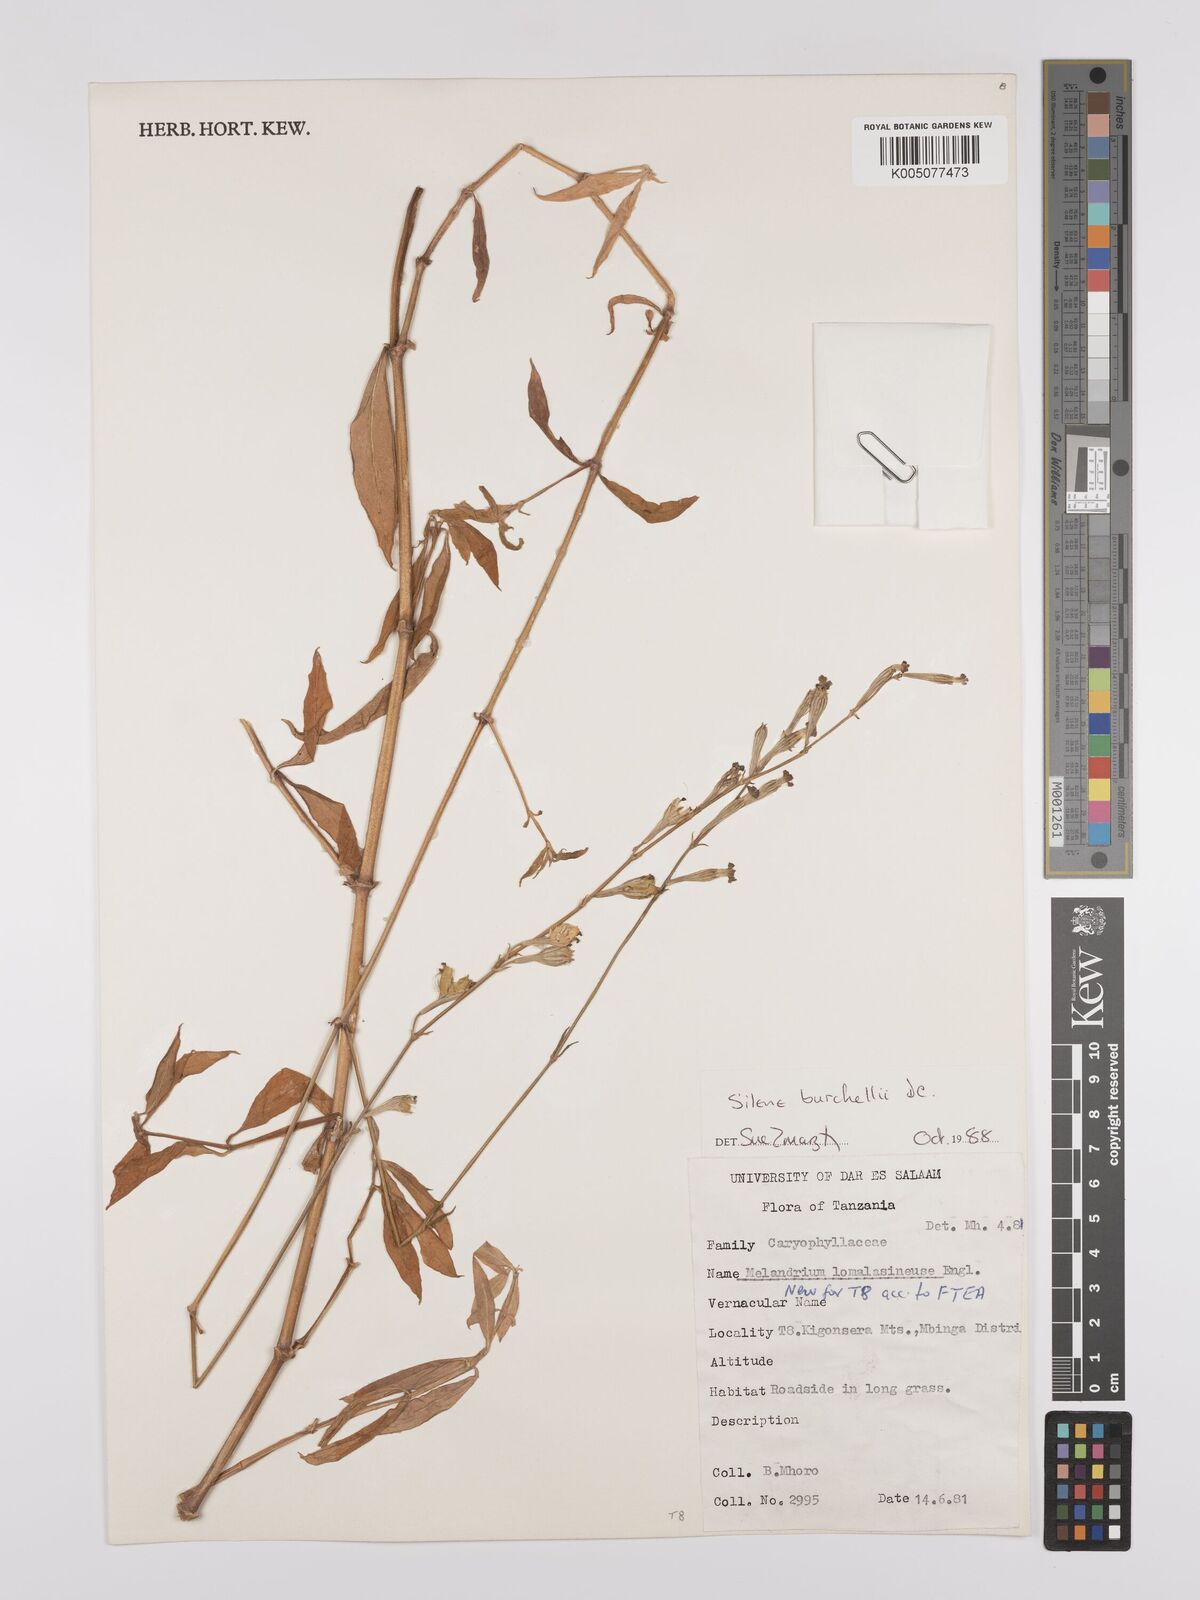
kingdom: Plantae
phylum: Tracheophyta
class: Magnoliopsida
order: Caryophyllales
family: Caryophyllaceae
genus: Silene
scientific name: Silene burchellii
